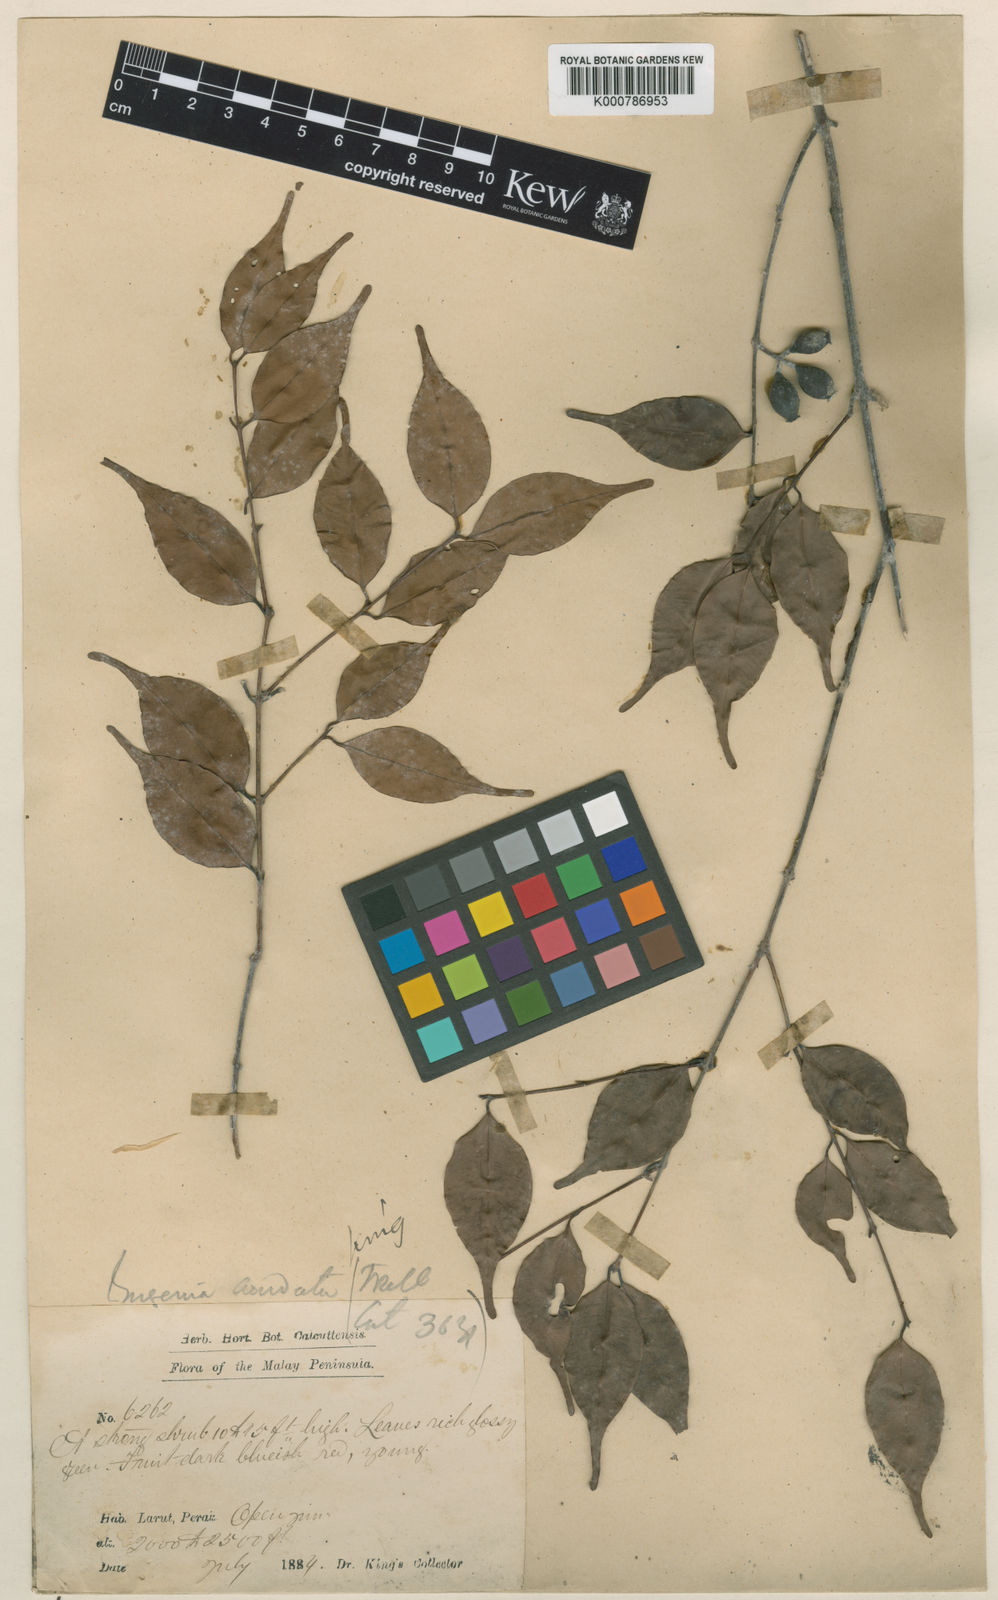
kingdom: Plantae
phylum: Tracheophyta
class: Magnoliopsida
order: Myrtales
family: Myrtaceae
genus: Syzygium
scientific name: Syzygium urophyllum
